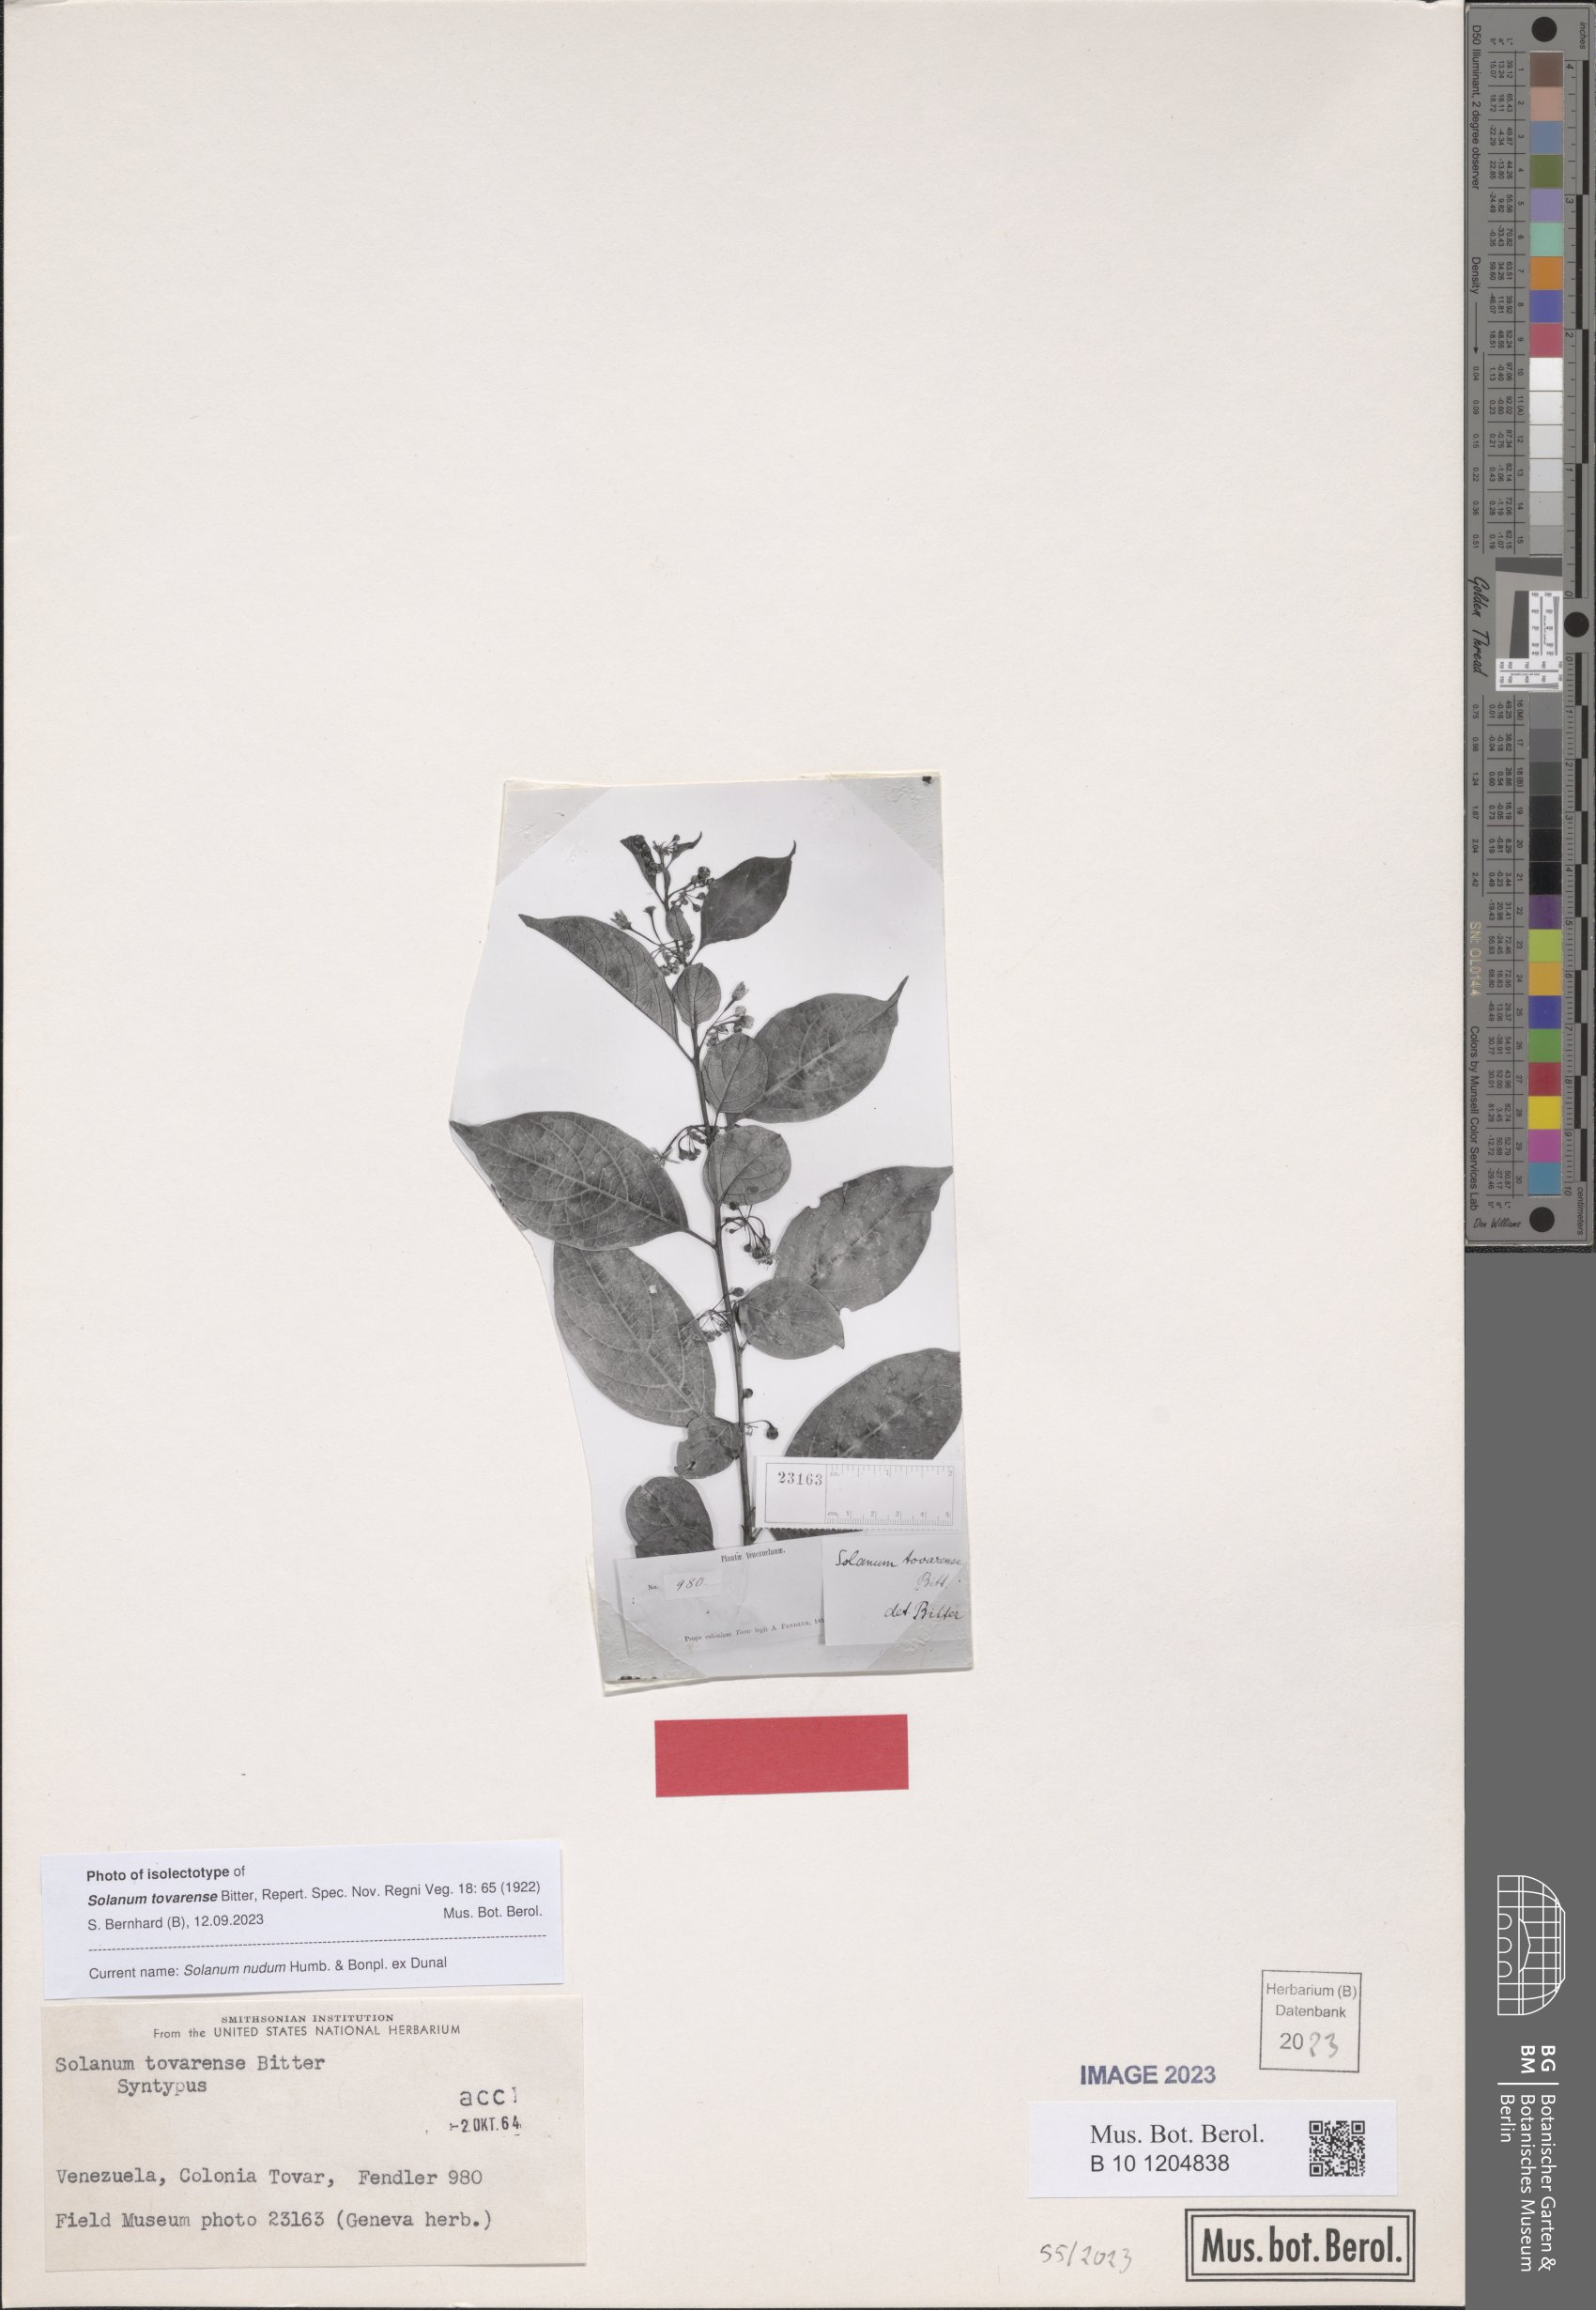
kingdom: Plantae
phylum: Tracheophyta
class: Magnoliopsida
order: Solanales
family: Solanaceae
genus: Solanum
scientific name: Solanum nudum
